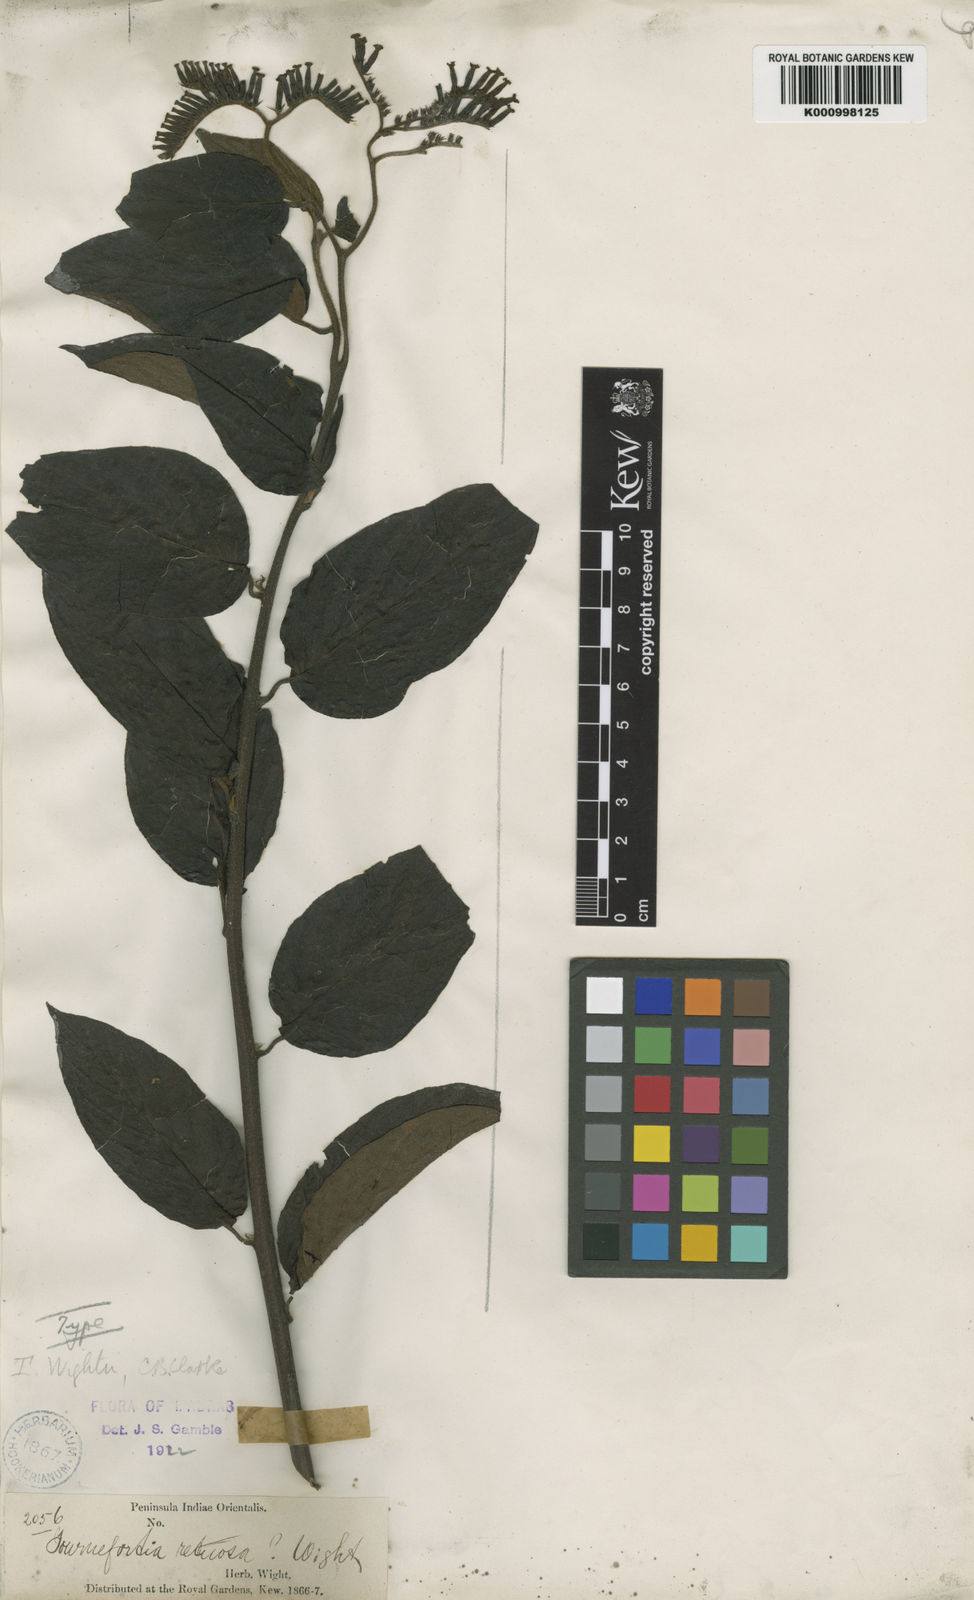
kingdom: Plantae
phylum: Tracheophyta
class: Magnoliopsida
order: Boraginales
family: Heliotropiaceae
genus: Tournefortia
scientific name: Tournefortia wightii
